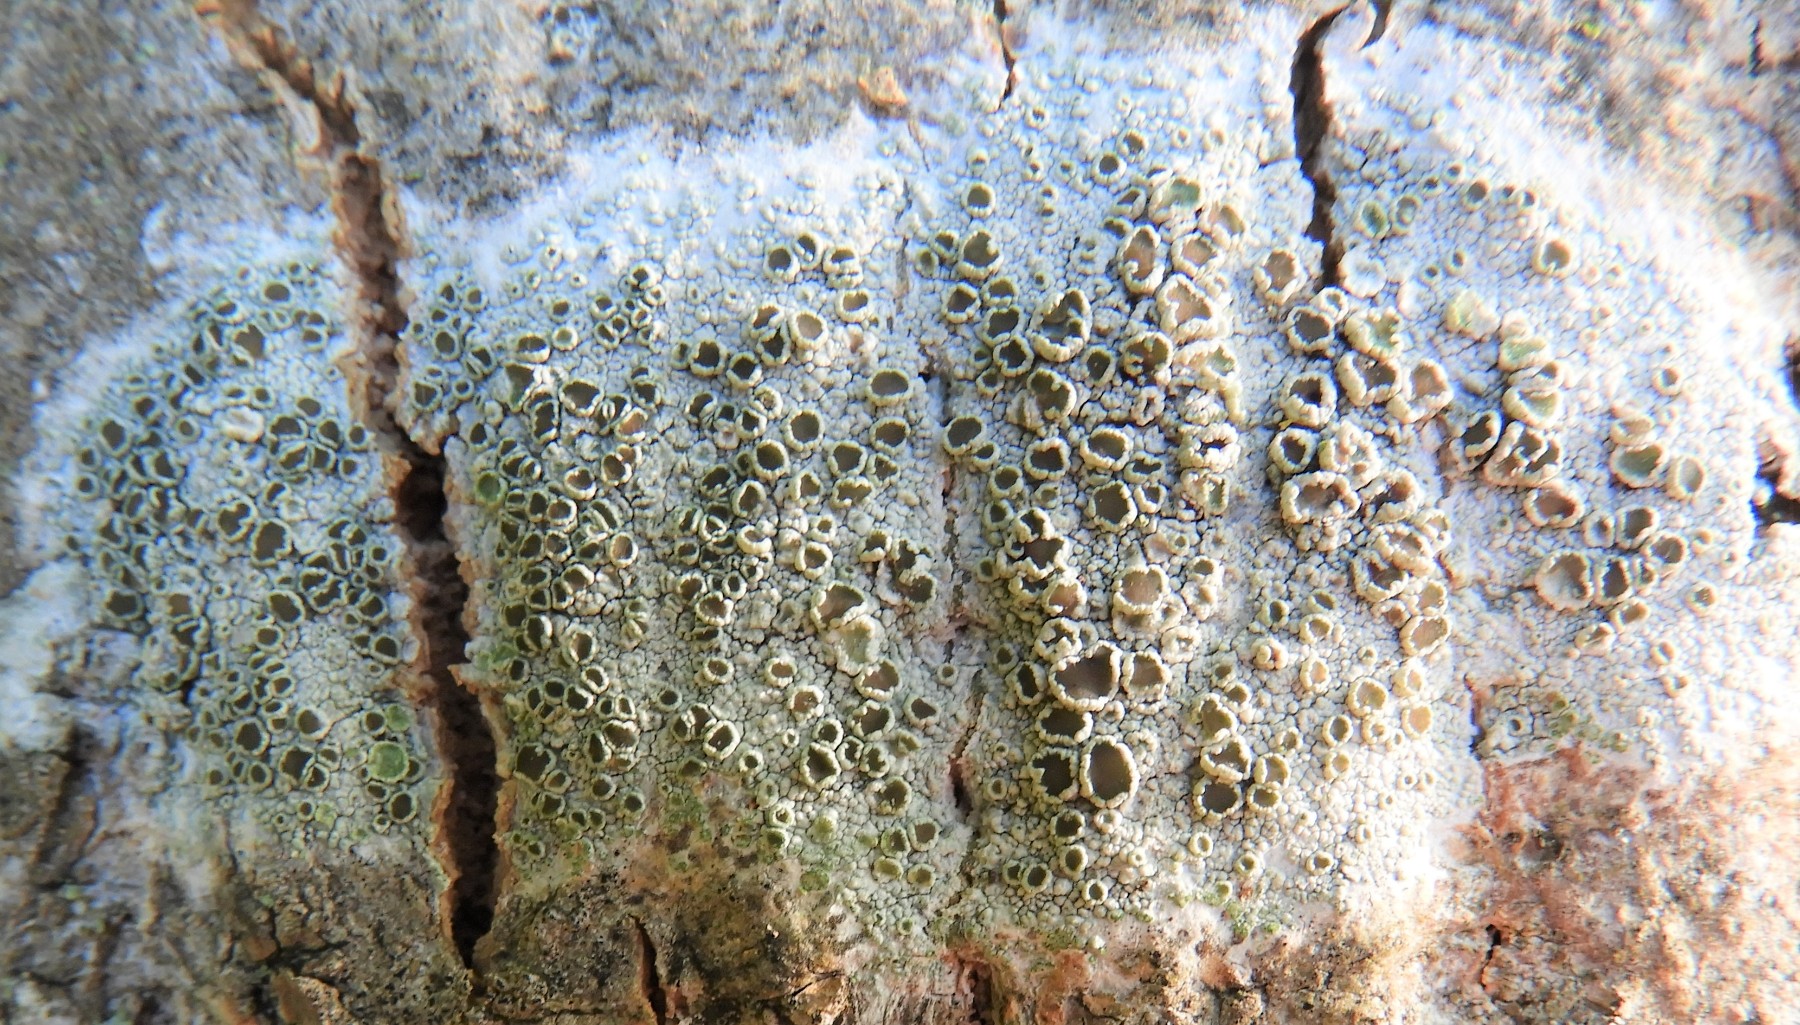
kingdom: Fungi
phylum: Ascomycota
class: Lecanoromycetes
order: Lecanorales
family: Lecanoraceae
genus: Lecanora
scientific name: Lecanora chlarotera
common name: brun kantskivelav
